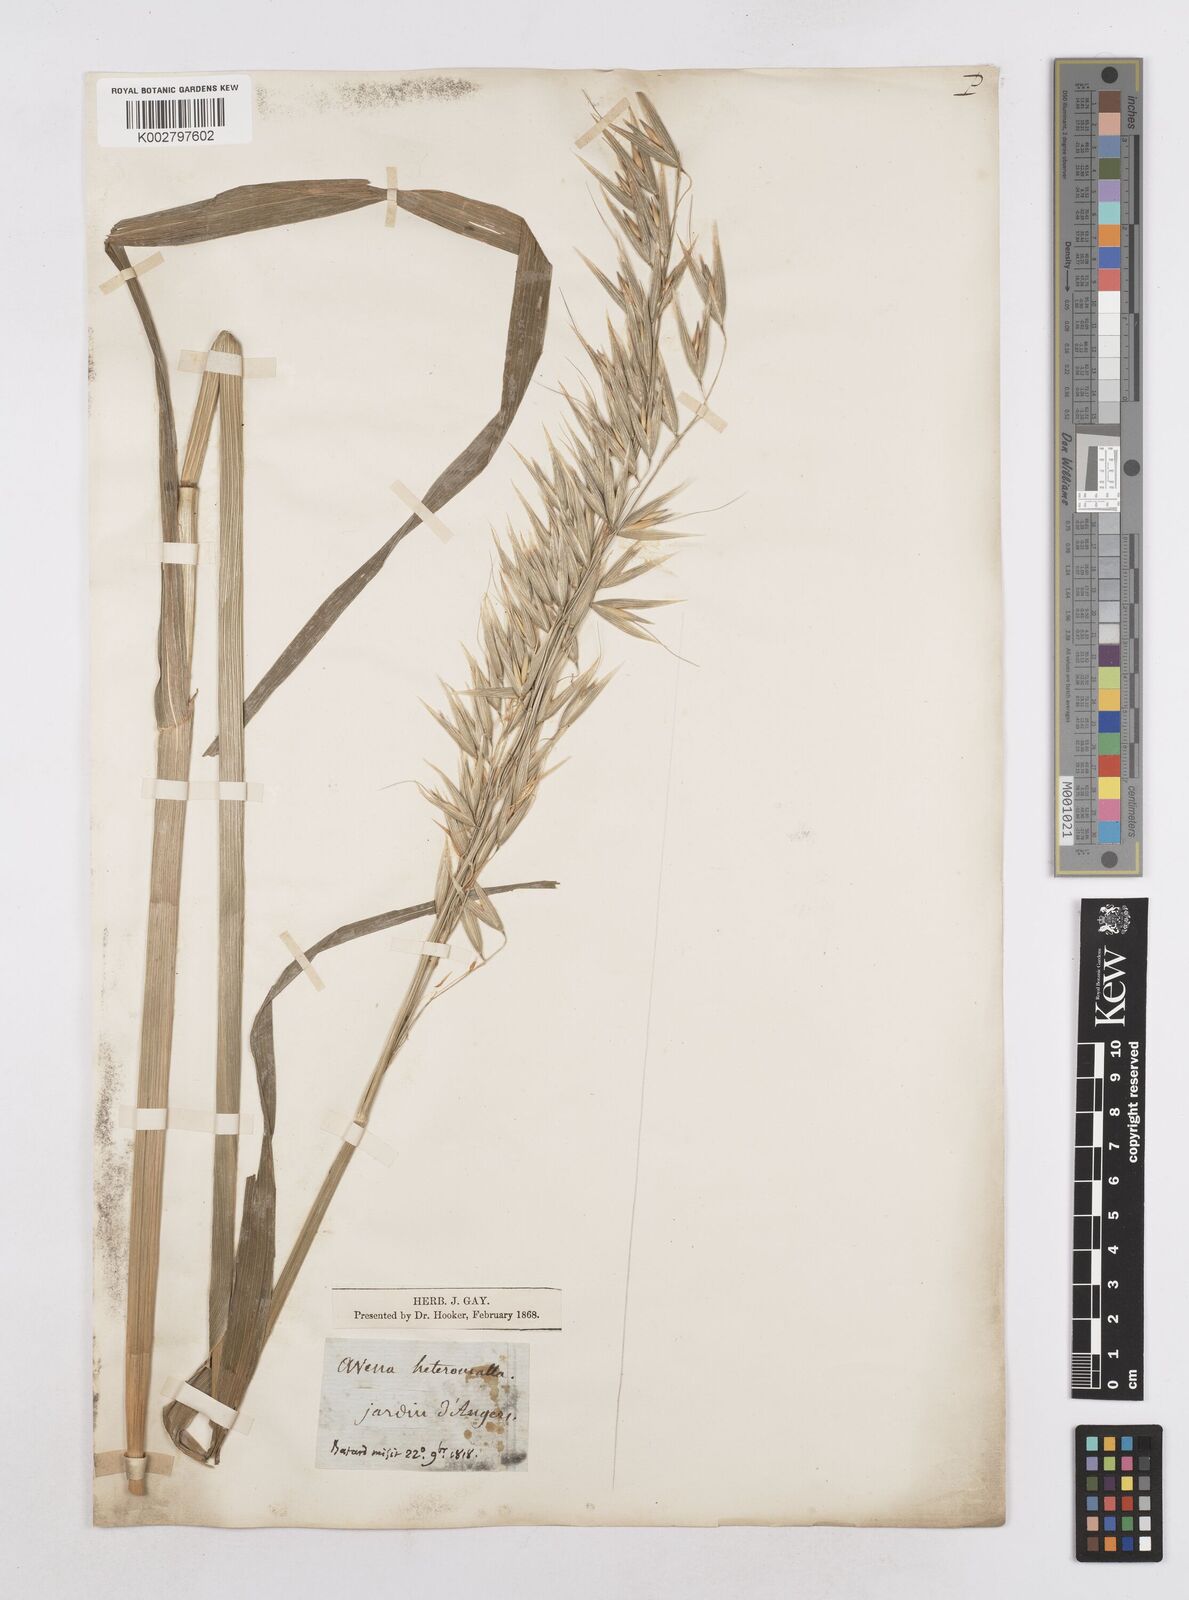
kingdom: Plantae
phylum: Tracheophyta
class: Liliopsida
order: Poales
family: Poaceae
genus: Avena
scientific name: Avena sativa
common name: Oat
